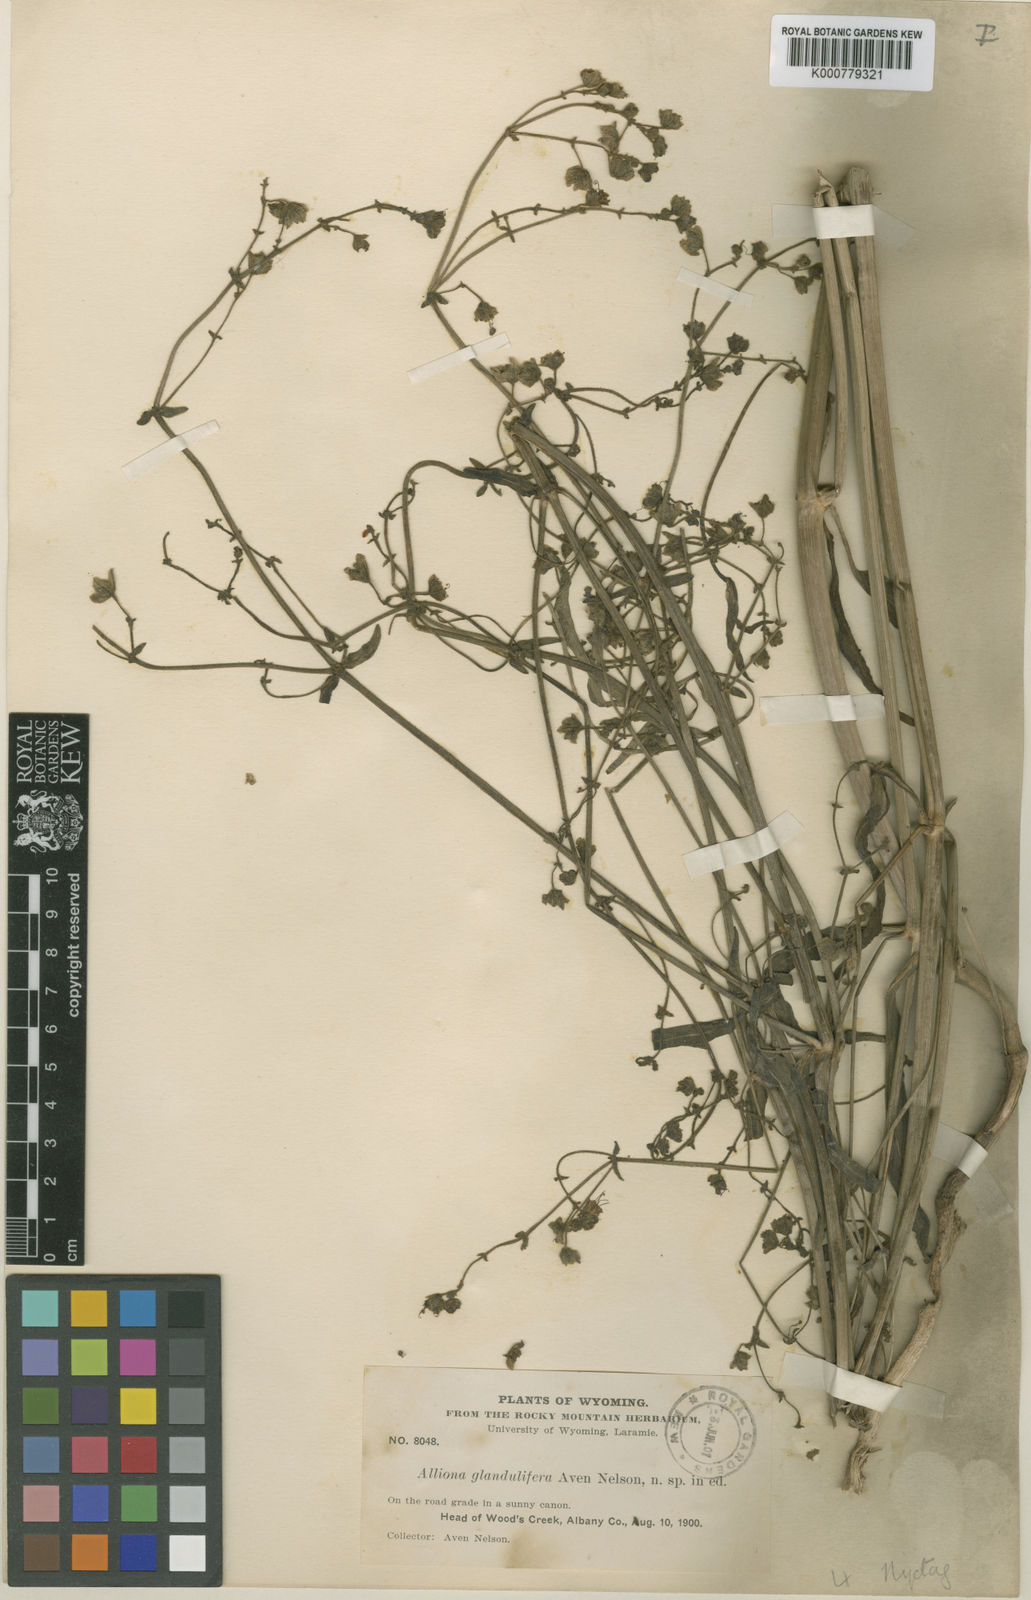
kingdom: Plantae
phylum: Tracheophyta
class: Magnoliopsida
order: Caryophyllales
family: Nyctaginaceae
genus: Mirabilis
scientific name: Mirabilis linearis
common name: Linear-leaved four-o'clock
